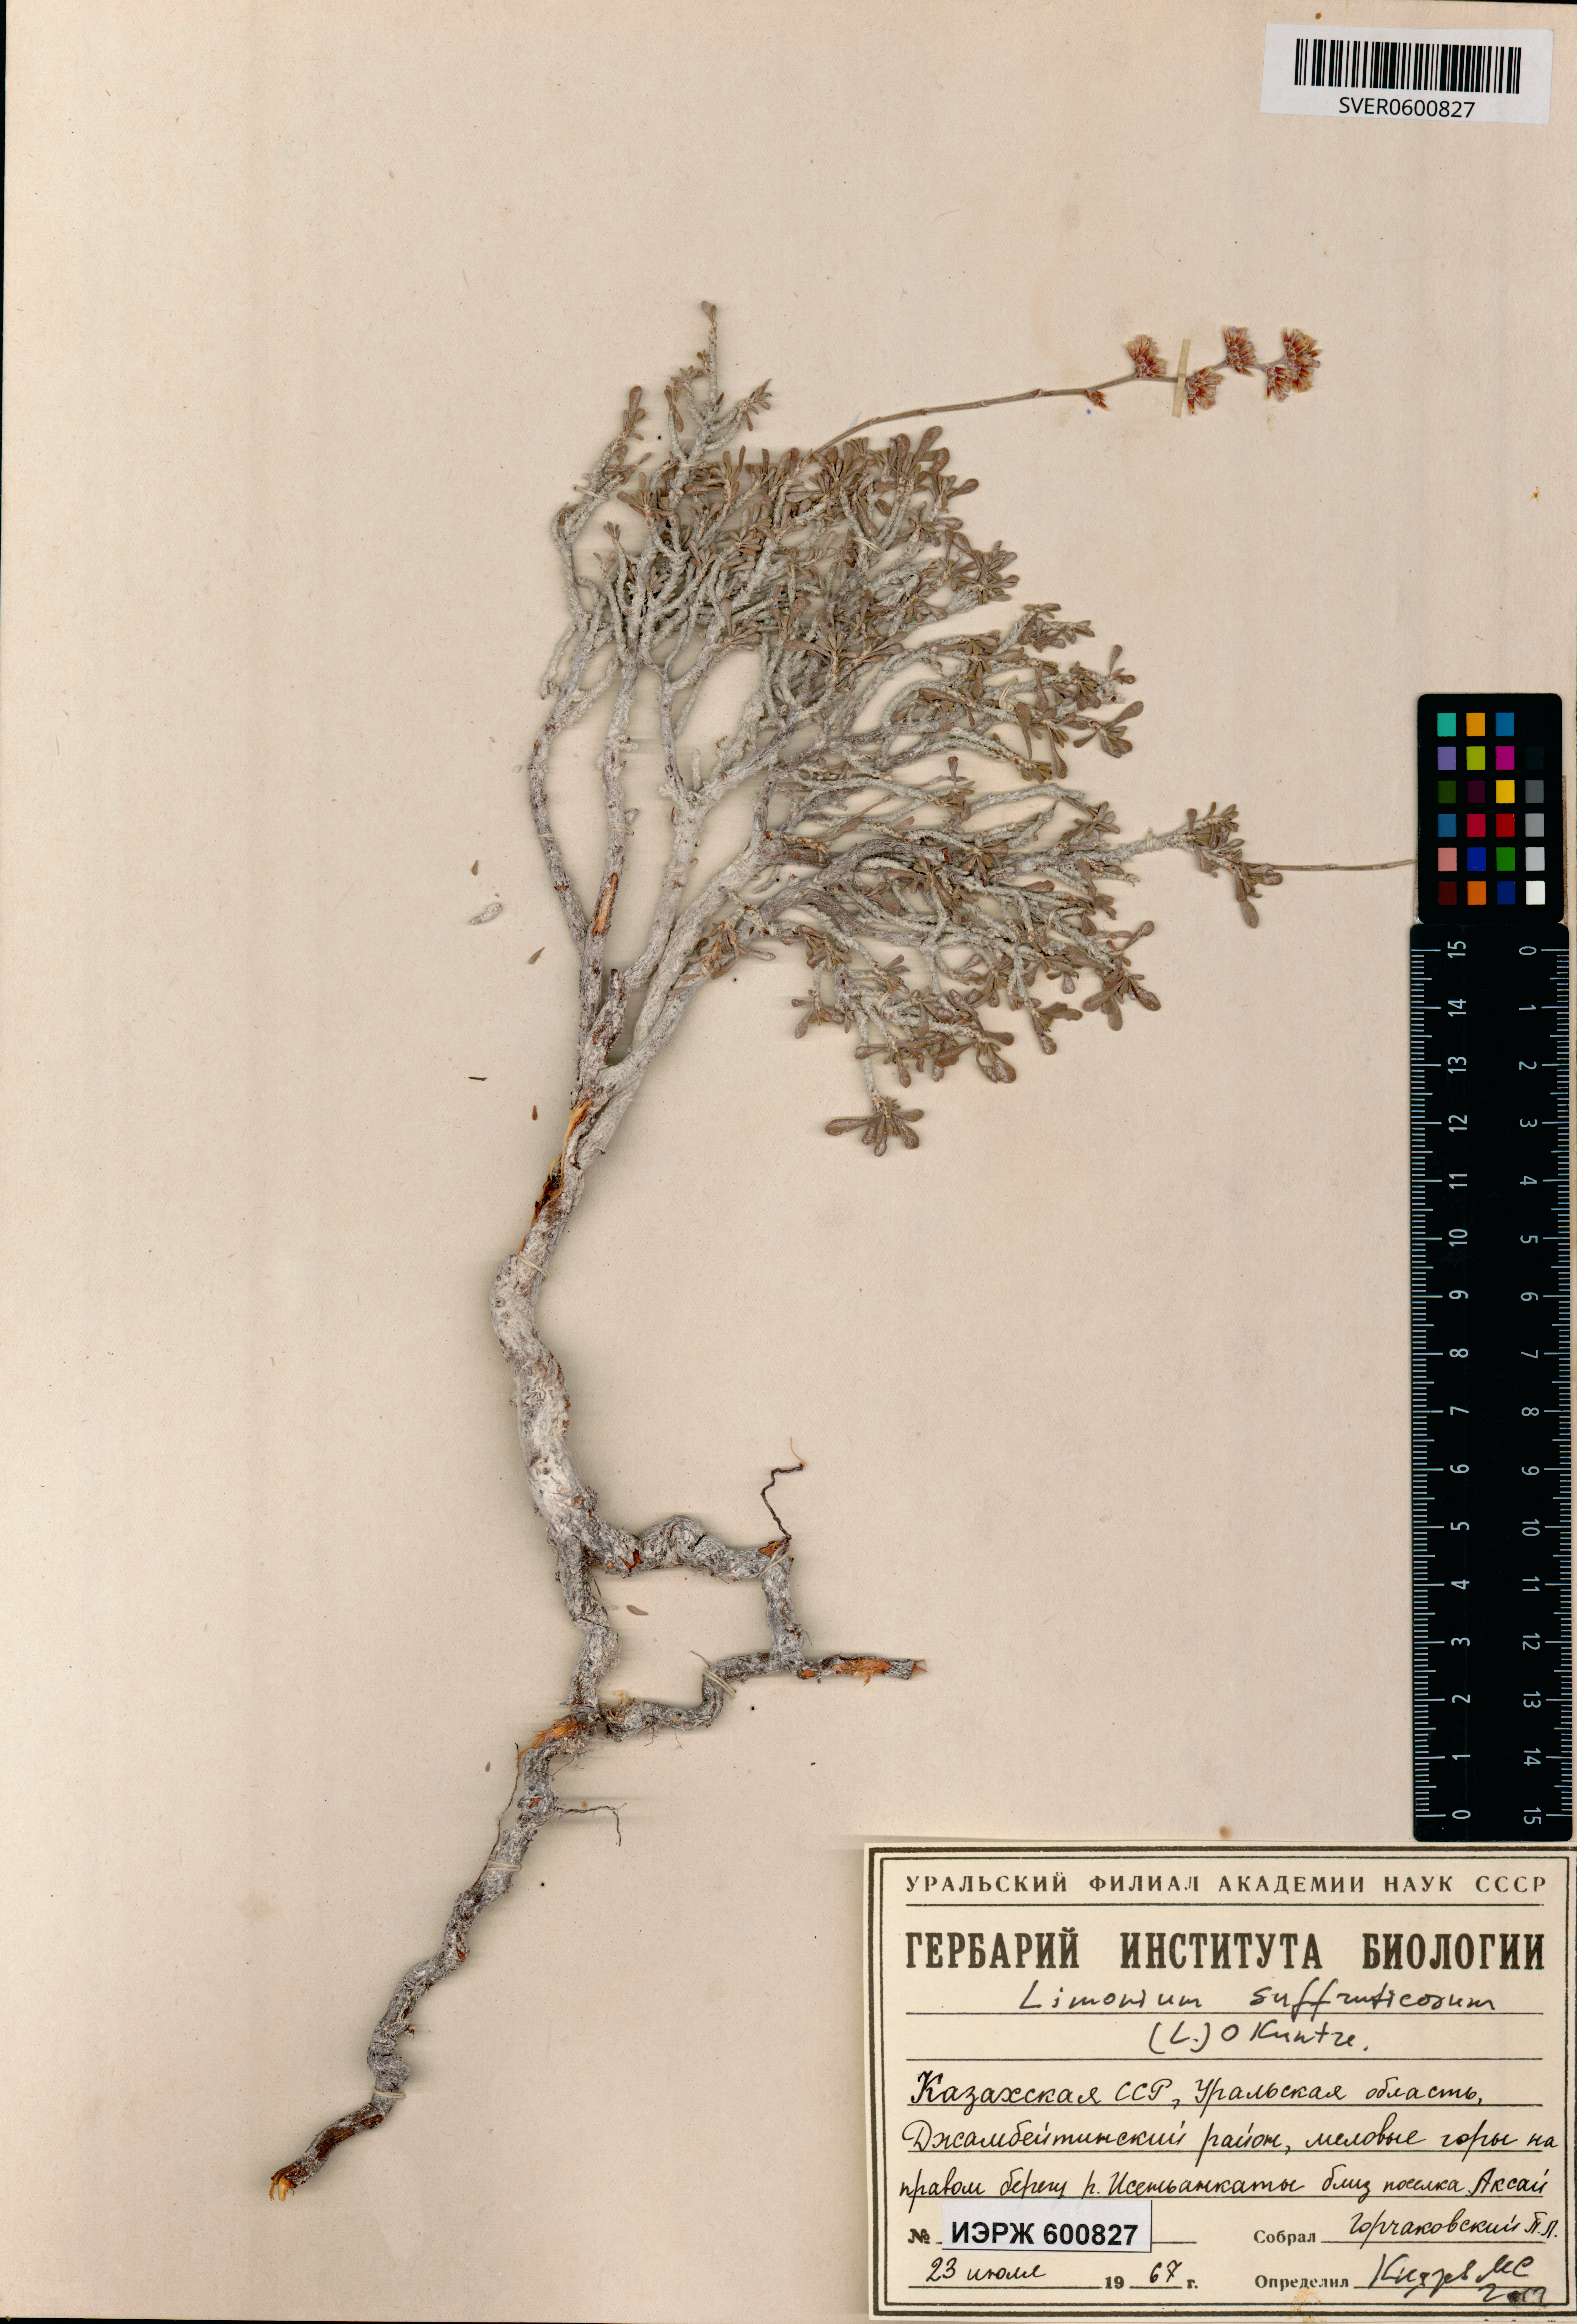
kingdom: Plantae
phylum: Tracheophyta
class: Magnoliopsida
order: Caryophyllales
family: Plumbaginaceae
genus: Limonium
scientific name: Limonium suffruticosum
